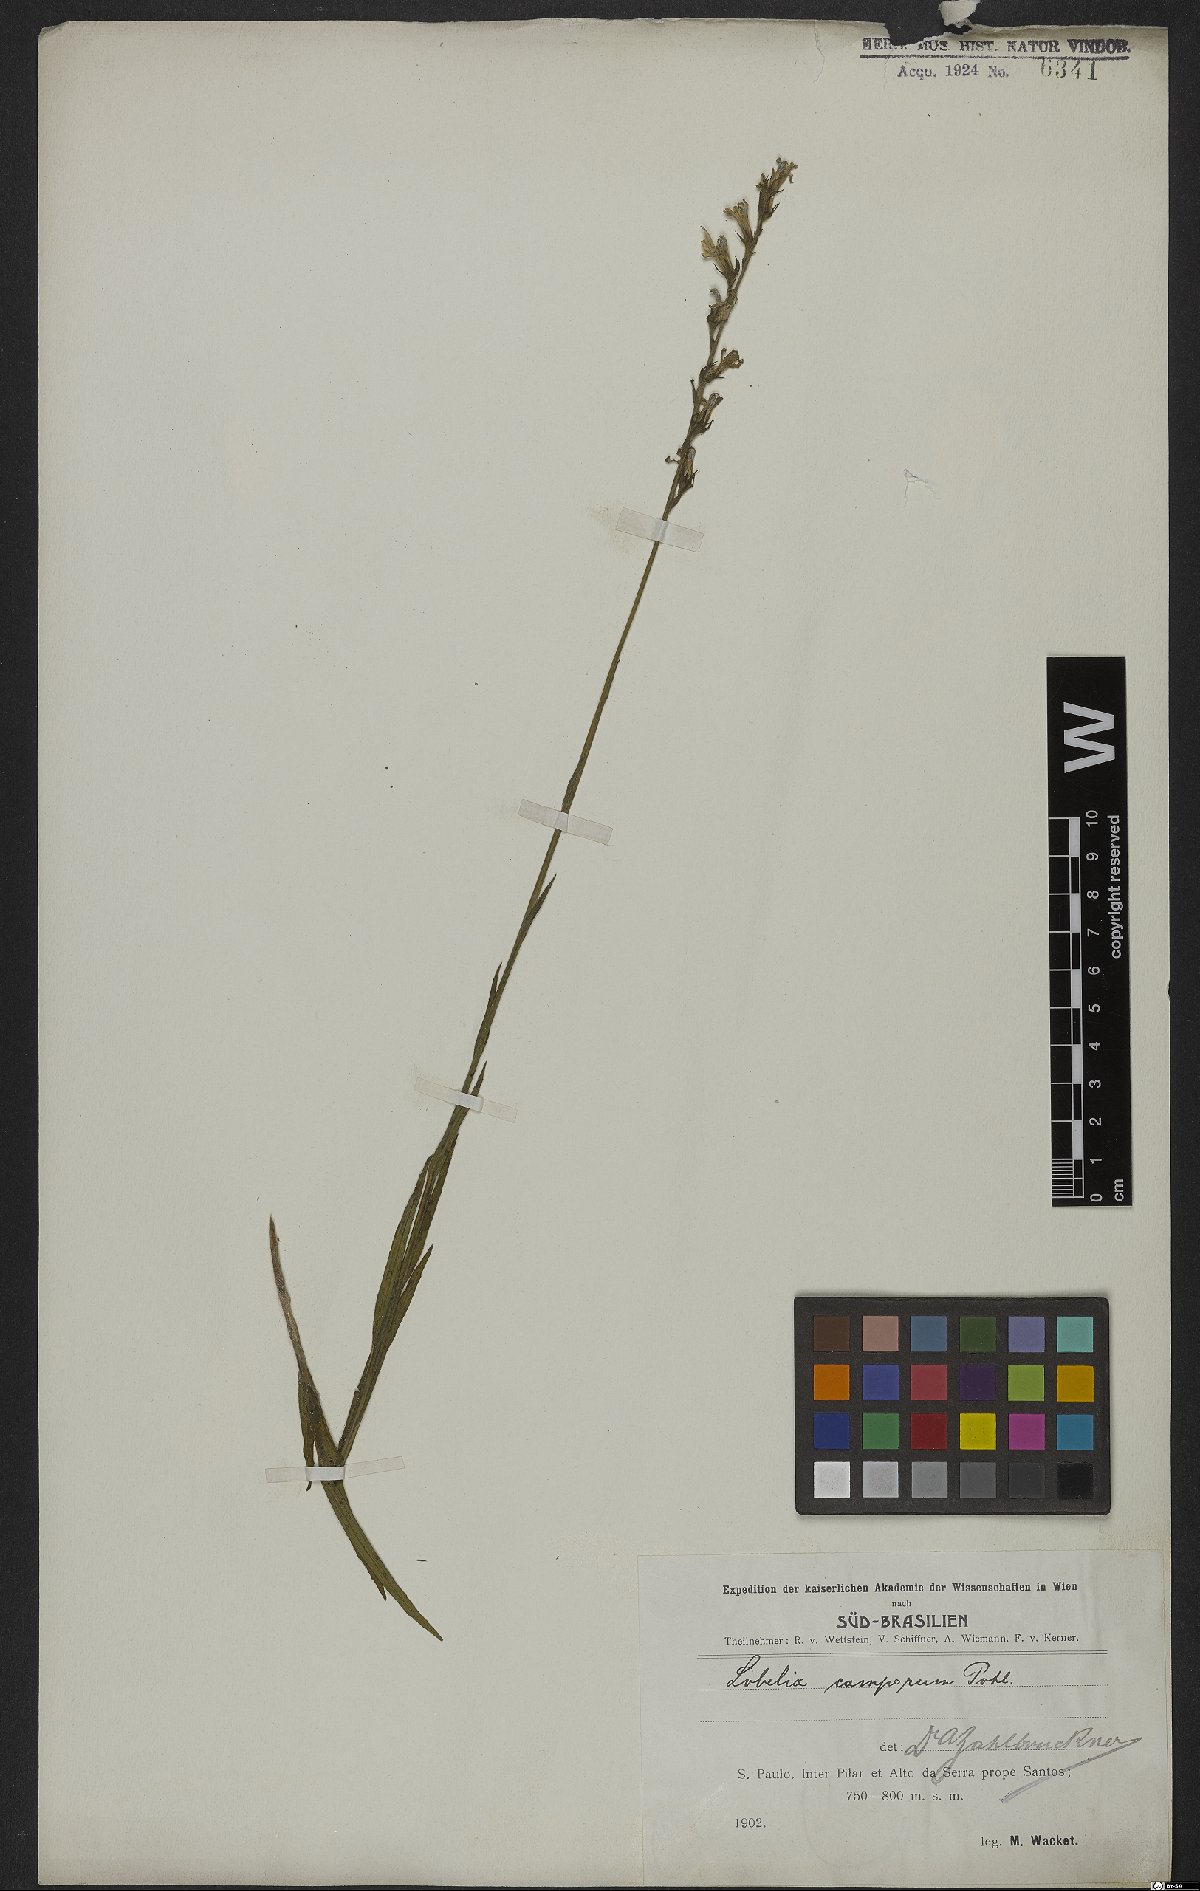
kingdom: Plantae
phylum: Tracheophyta
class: Magnoliopsida
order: Asterales
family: Campanulaceae
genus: Lobelia
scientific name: Lobelia camporum
